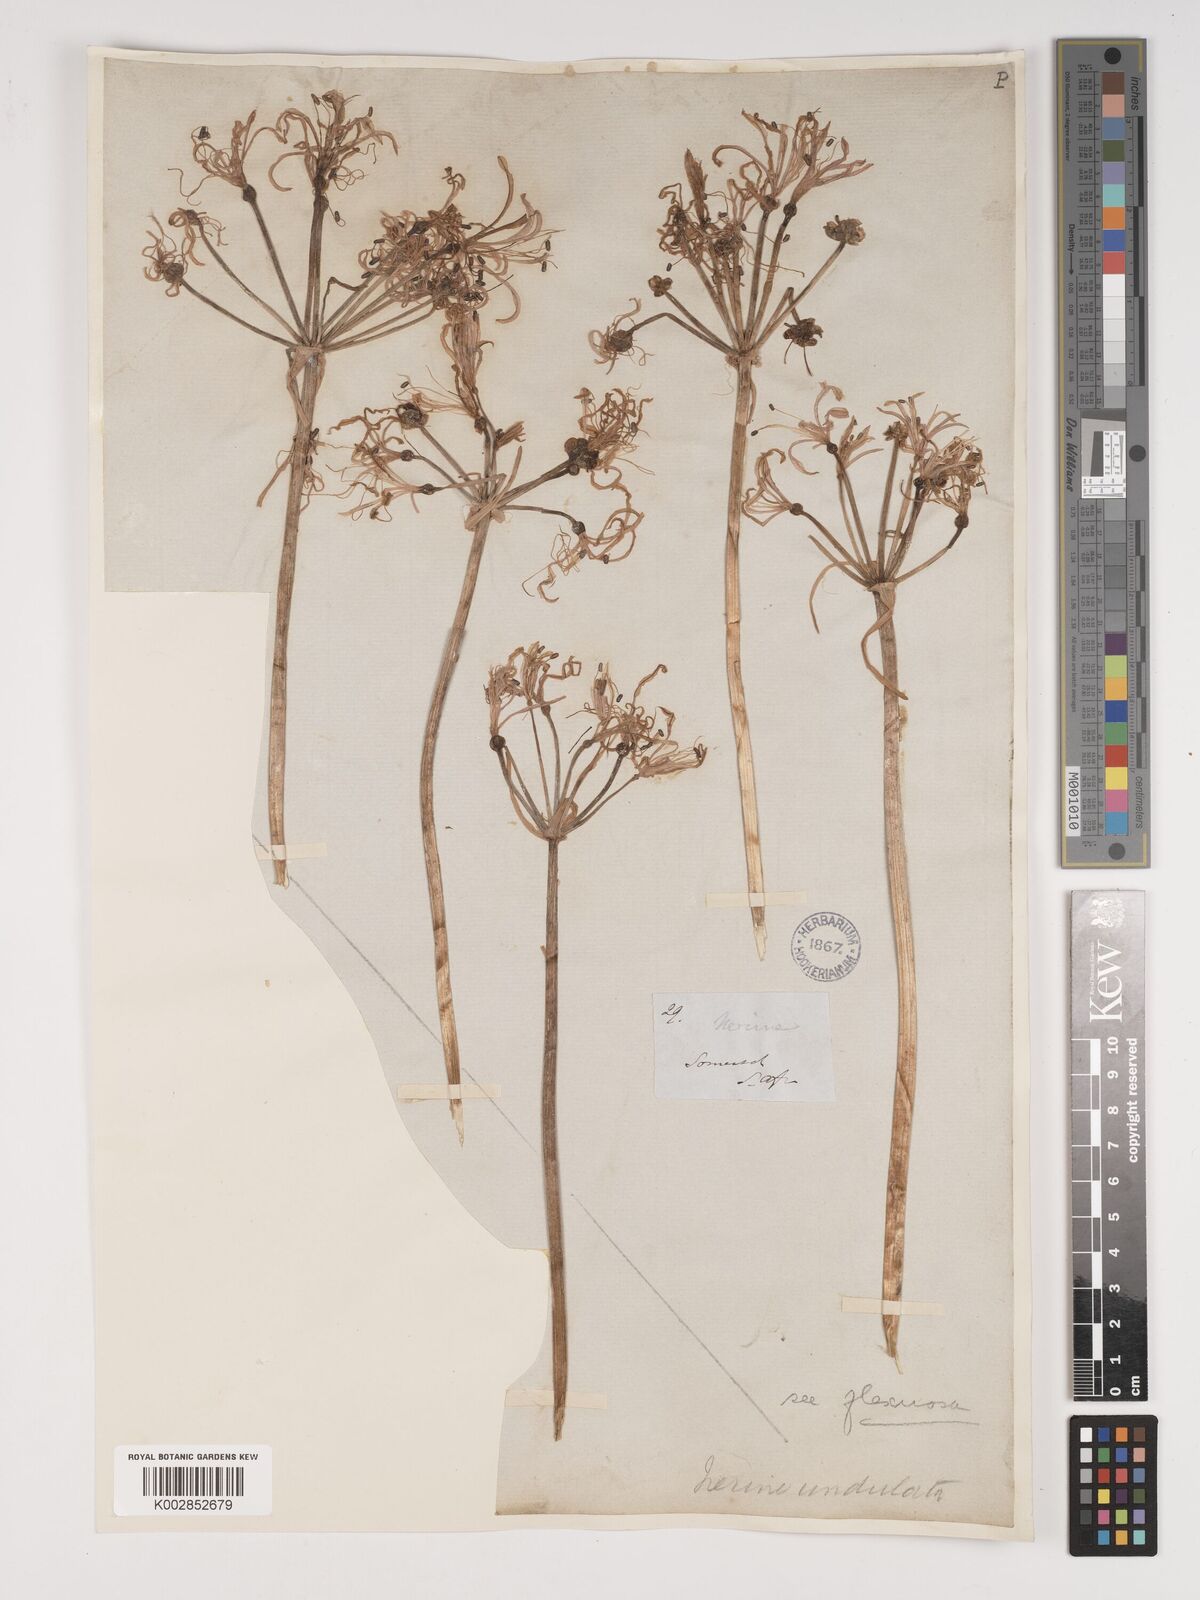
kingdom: Plantae
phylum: Tracheophyta
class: Liliopsida
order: Asparagales
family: Amaryllidaceae
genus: Nerine
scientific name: Nerine undulata
